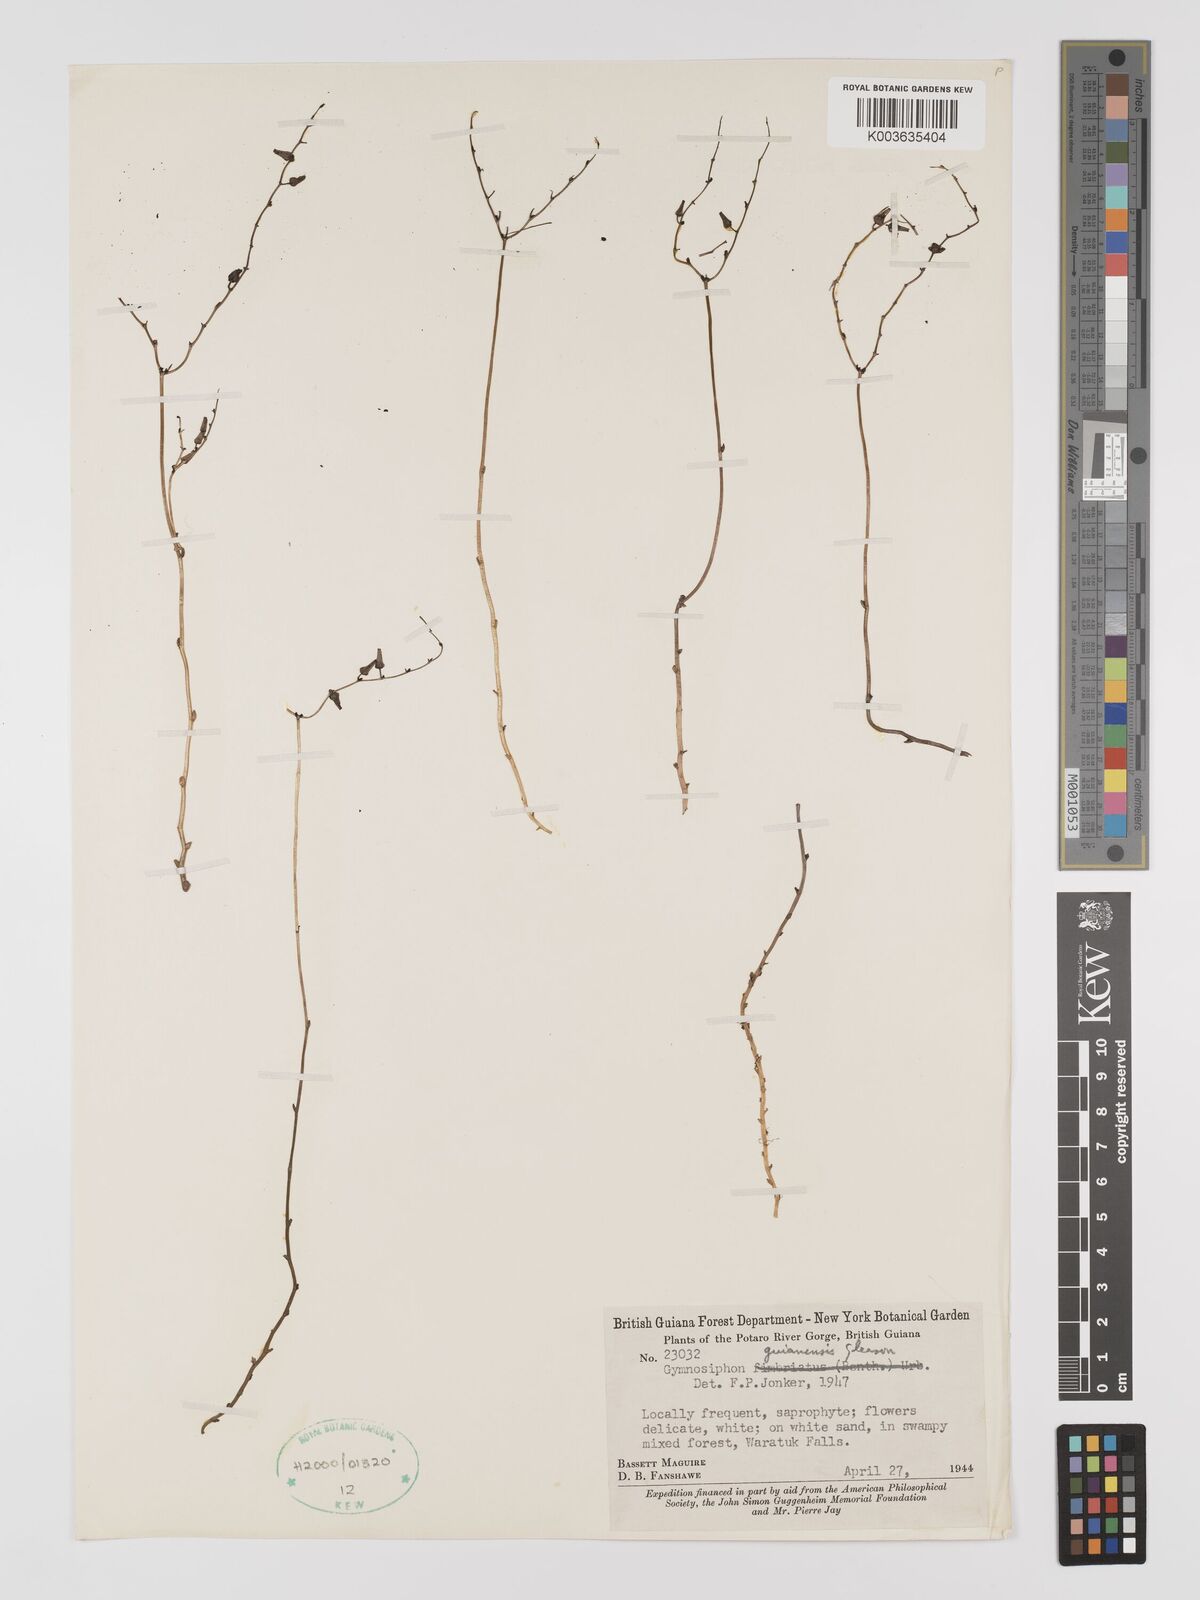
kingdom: Plantae
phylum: Tracheophyta
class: Liliopsida
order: Dioscoreales
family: Burmanniaceae
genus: Gymnosiphon
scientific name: Gymnosiphon guianensis
